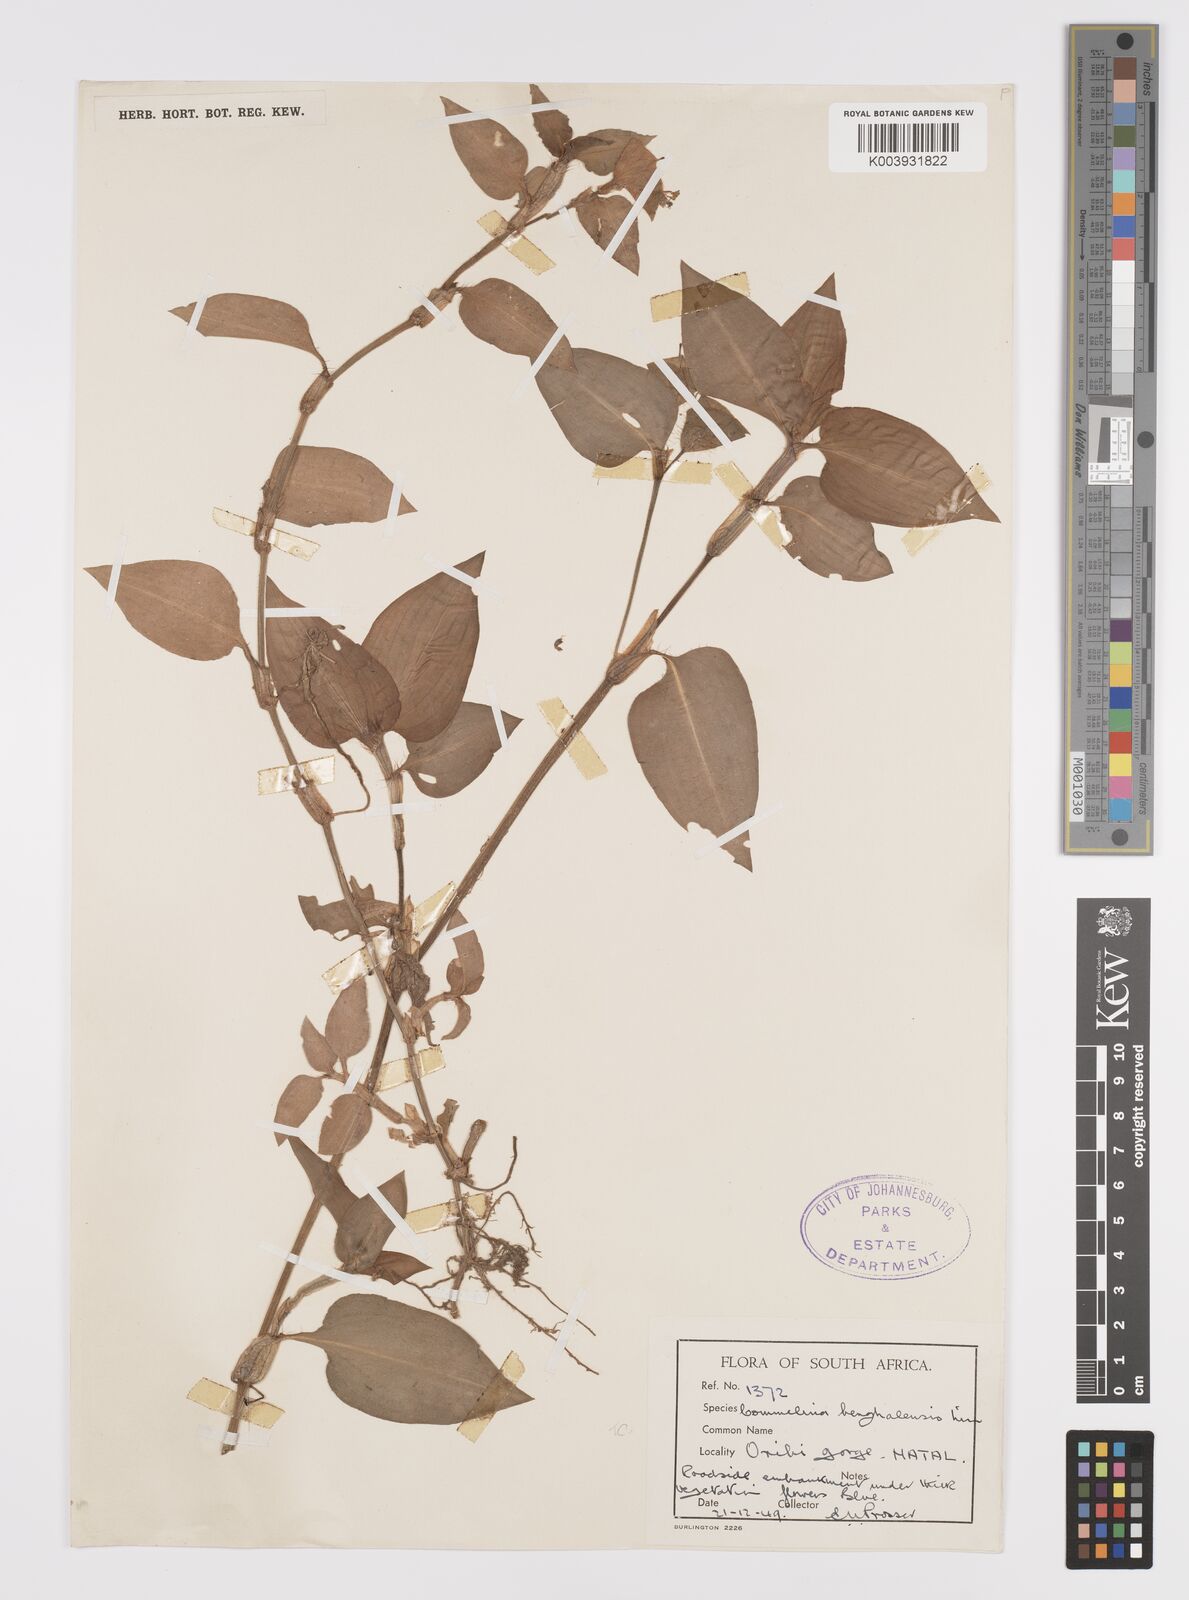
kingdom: Plantae
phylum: Tracheophyta
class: Liliopsida
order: Commelinales
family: Commelinaceae
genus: Commelina
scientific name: Commelina benghalensis
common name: Jio
